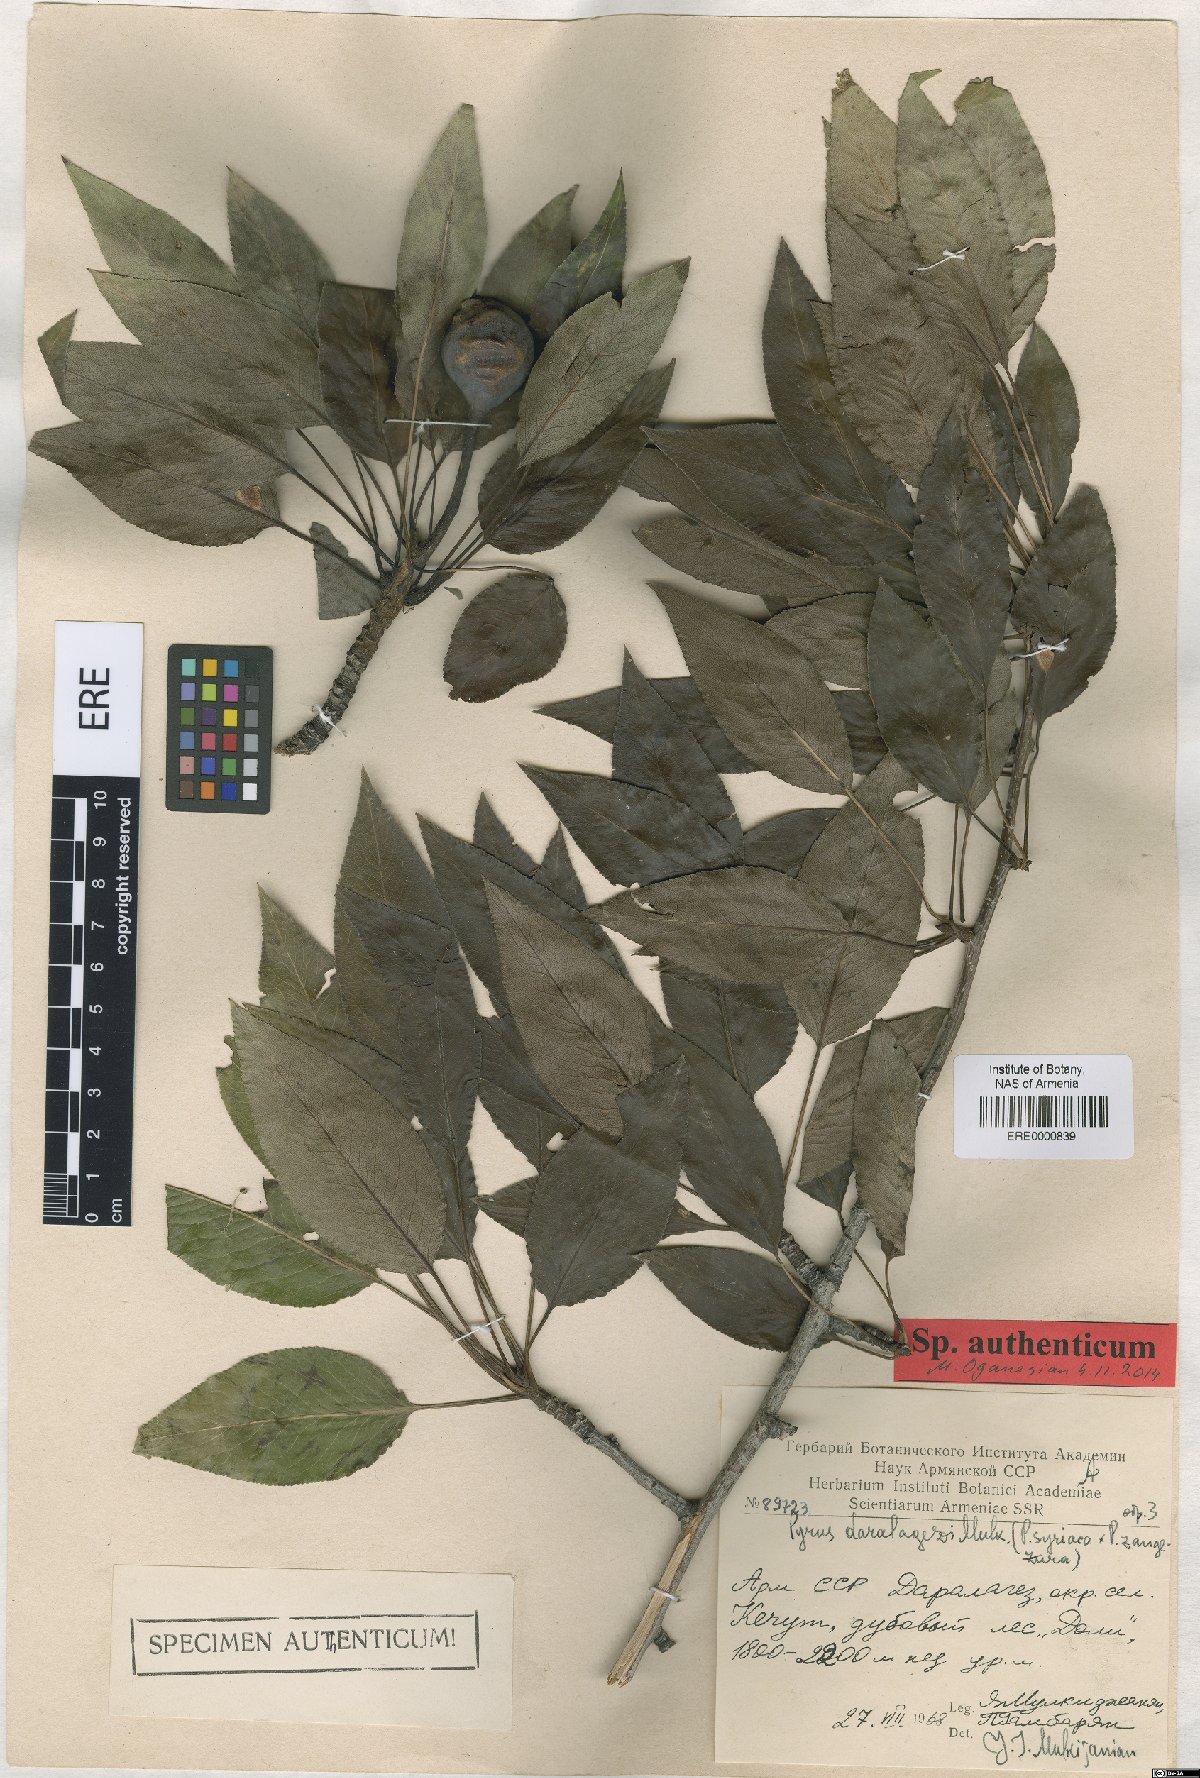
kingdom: Plantae
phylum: Tracheophyta
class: Magnoliopsida
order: Rosales
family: Rosaceae
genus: Pyrus
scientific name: Pyrus daralagezi
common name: Daralagezian pear
